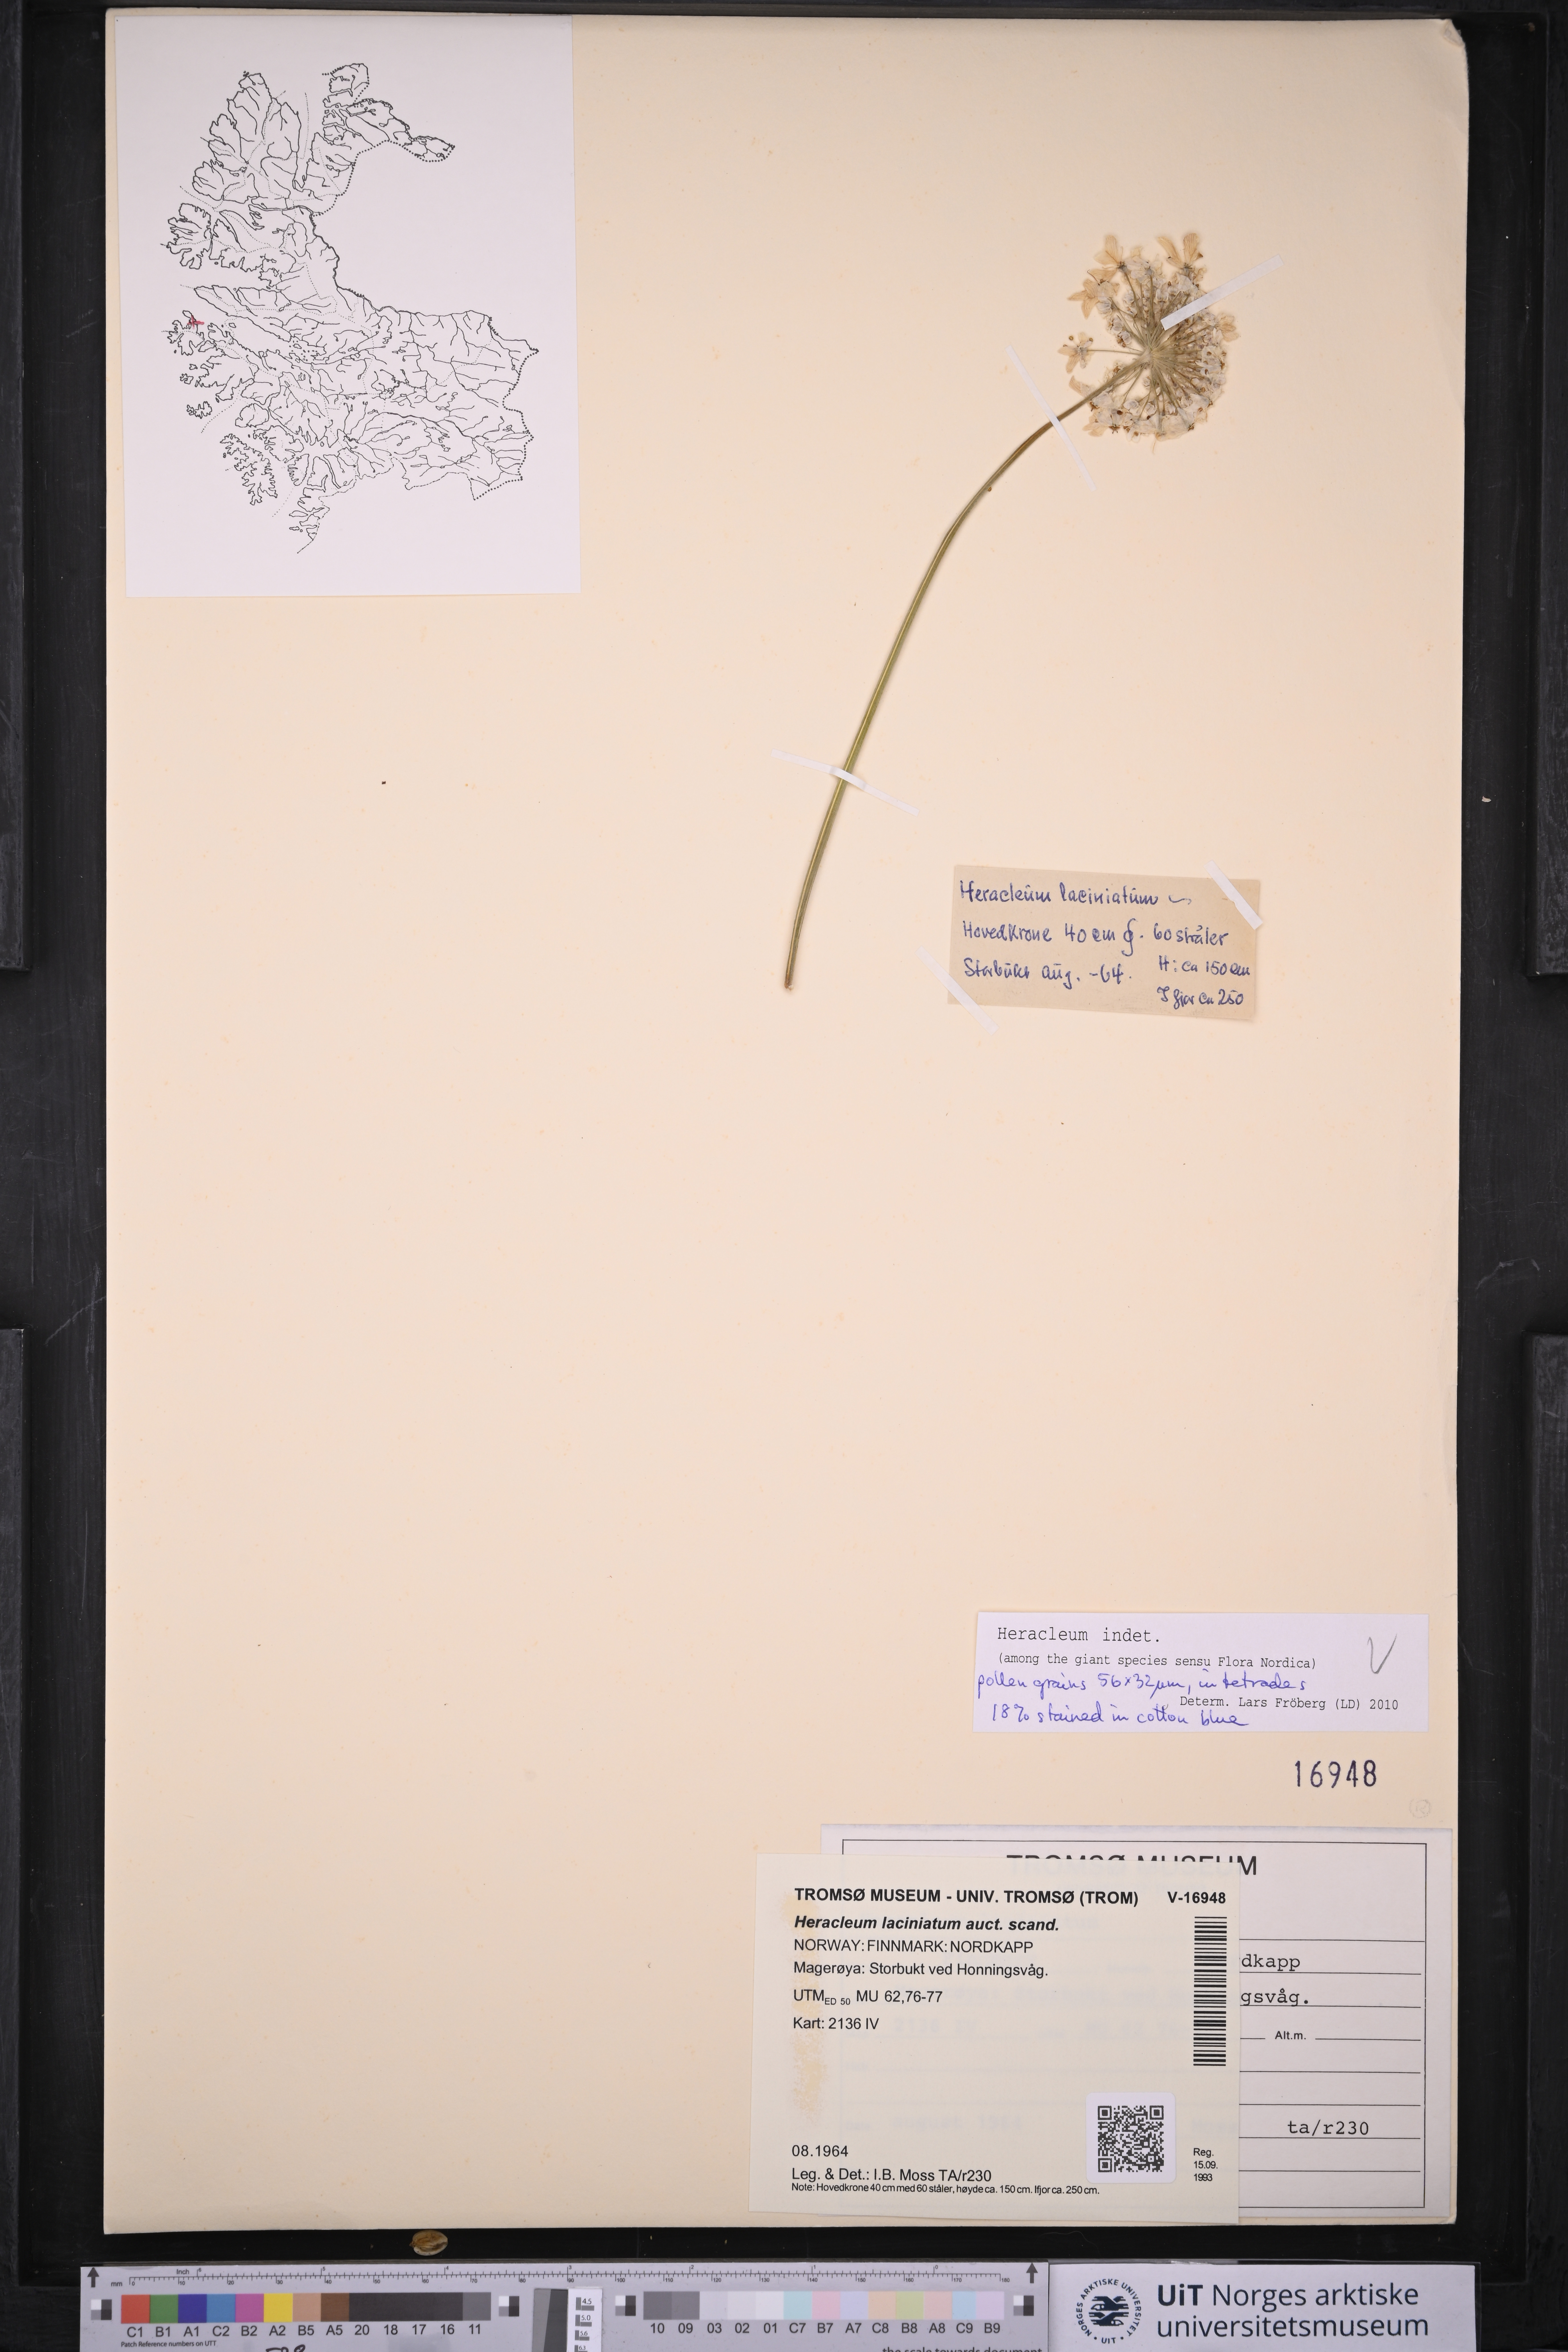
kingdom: Plantae
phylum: Tracheophyta
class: Magnoliopsida
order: Apiales
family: Apiaceae
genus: Heracleum
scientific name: Heracleum
